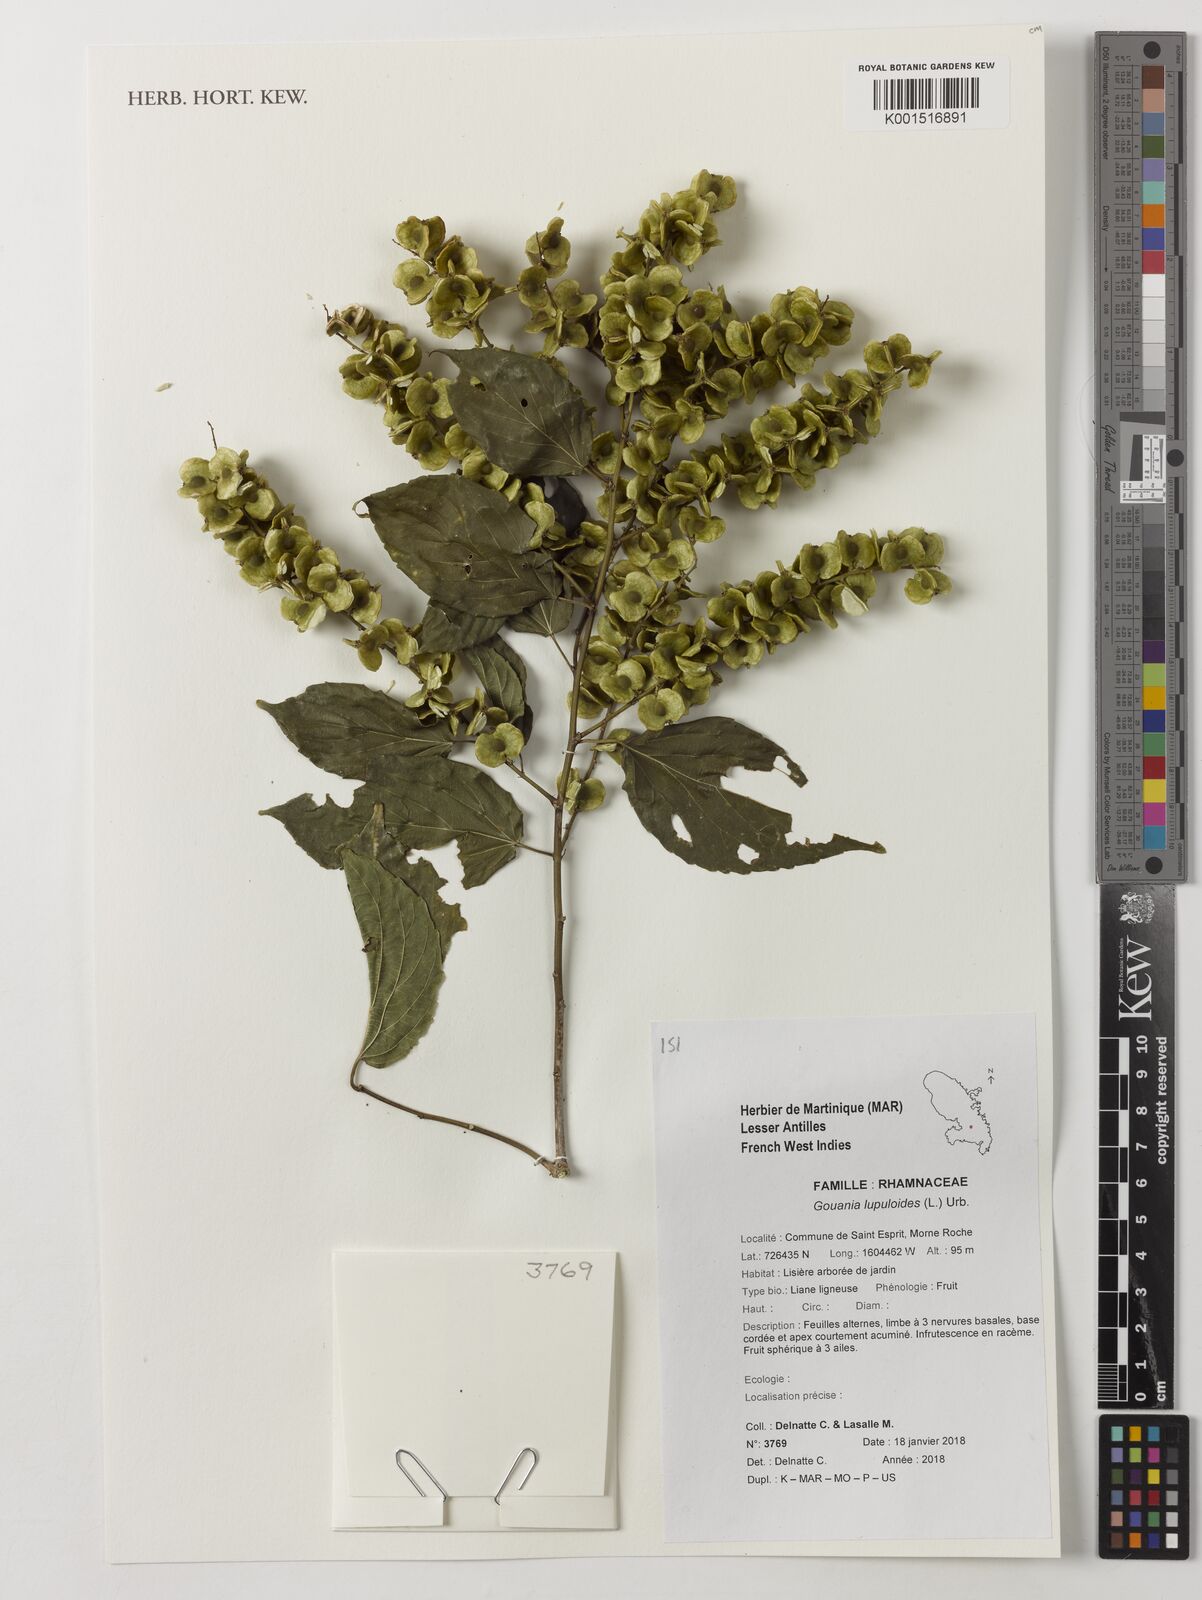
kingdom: Plantae
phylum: Tracheophyta
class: Magnoliopsida
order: Rosales
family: Rhamnaceae
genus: Gouania
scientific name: Gouania lupuloides
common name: Chewstick
